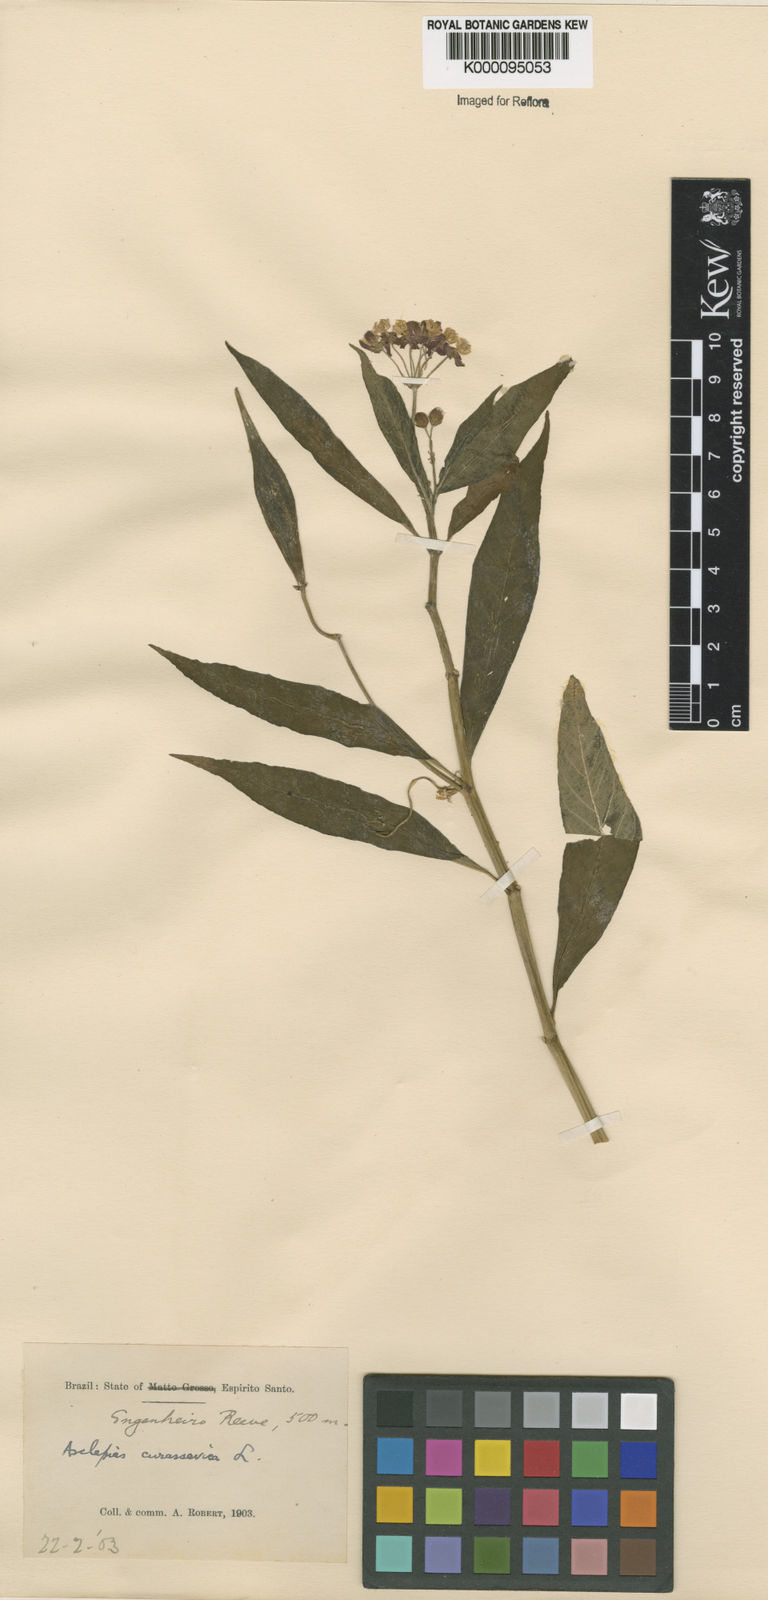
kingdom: Plantae
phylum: Tracheophyta
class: Magnoliopsida
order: Gentianales
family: Apocynaceae
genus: Asclepias
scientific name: Asclepias curassavica
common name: Bloodflower
